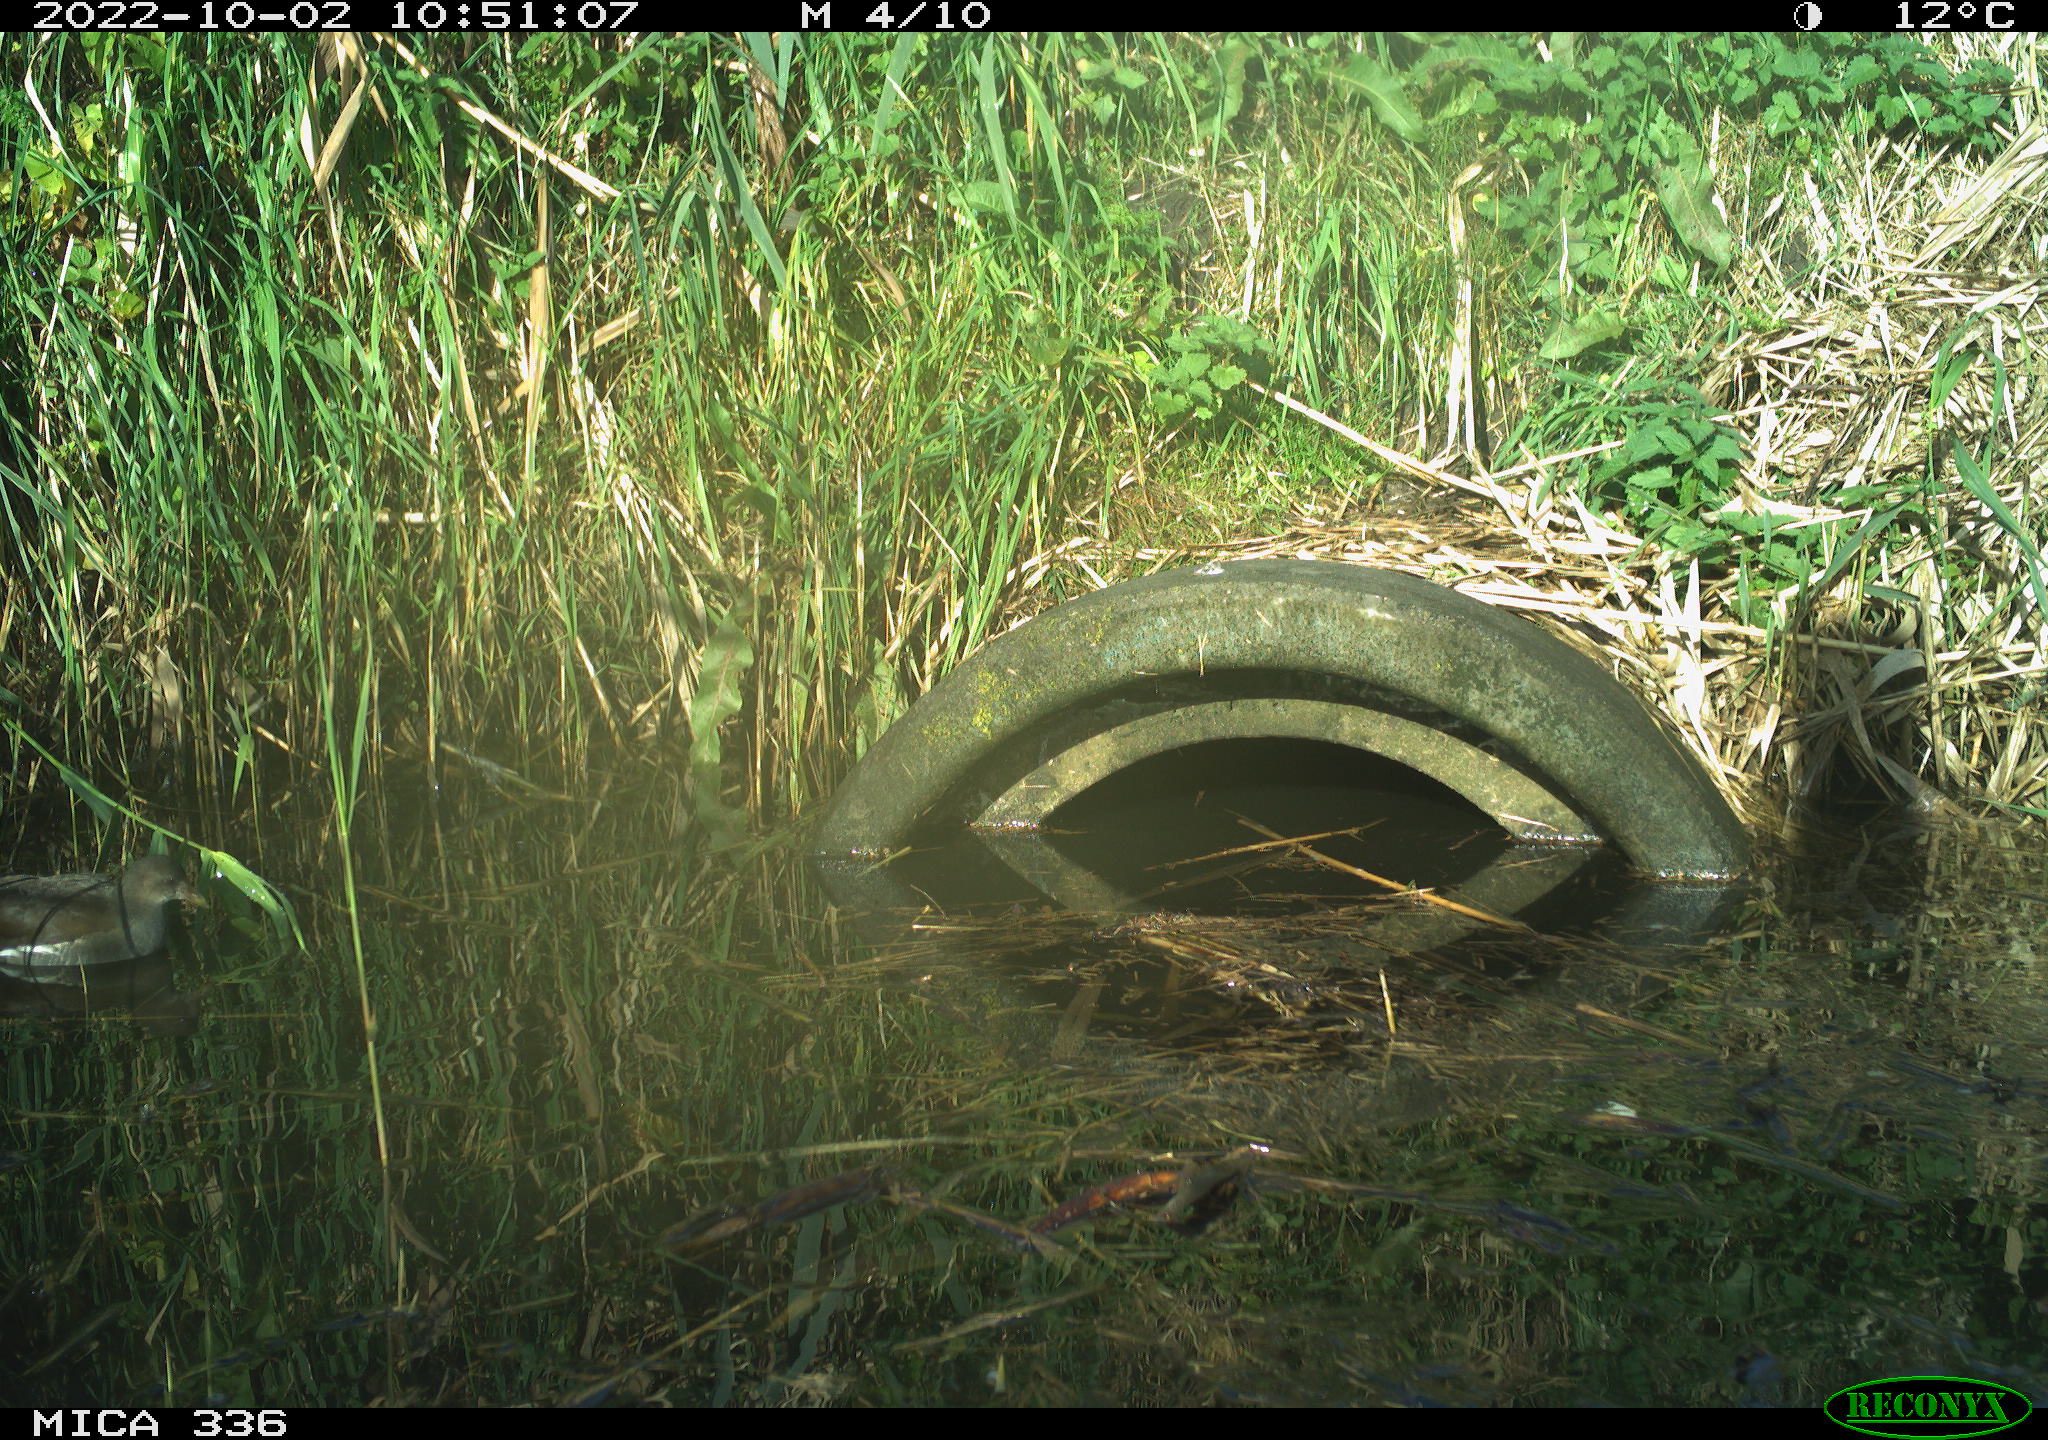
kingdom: Animalia
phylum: Chordata
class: Aves
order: Anseriformes
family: Anatidae
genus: Anas
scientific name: Anas
